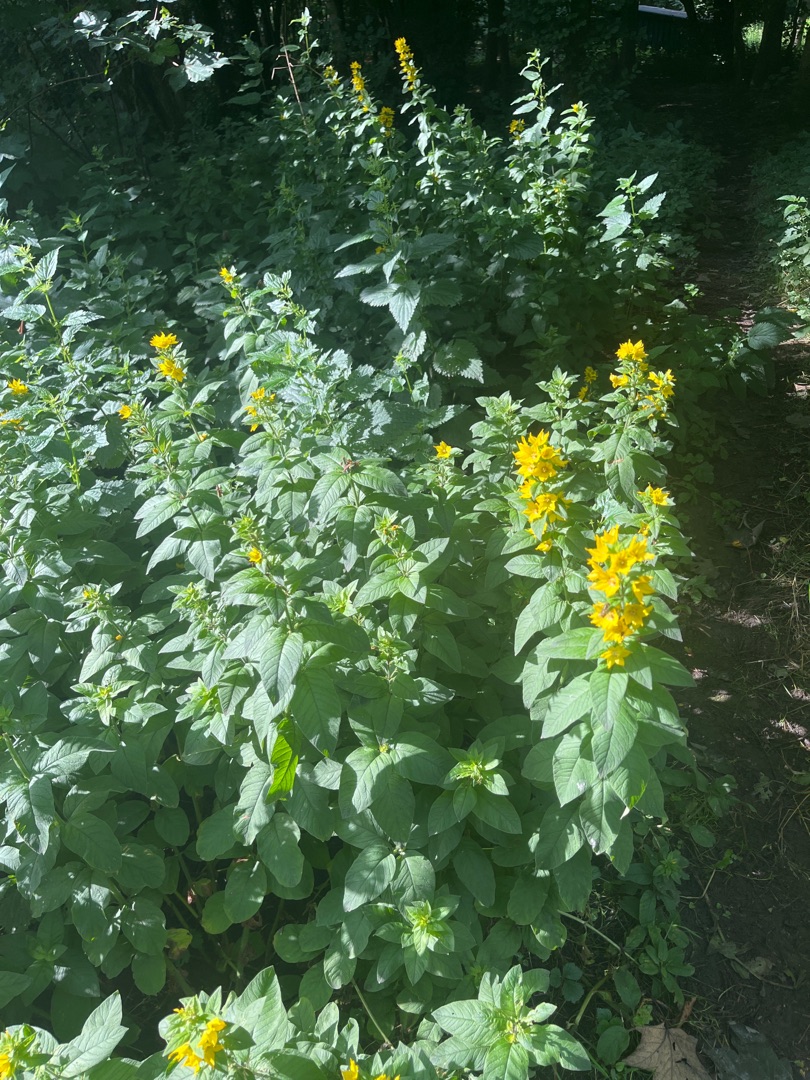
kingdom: Plantae
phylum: Tracheophyta
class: Magnoliopsida
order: Ericales
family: Primulaceae
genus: Lysimachia
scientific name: Lysimachia punctata
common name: Prikbladet fredløs
